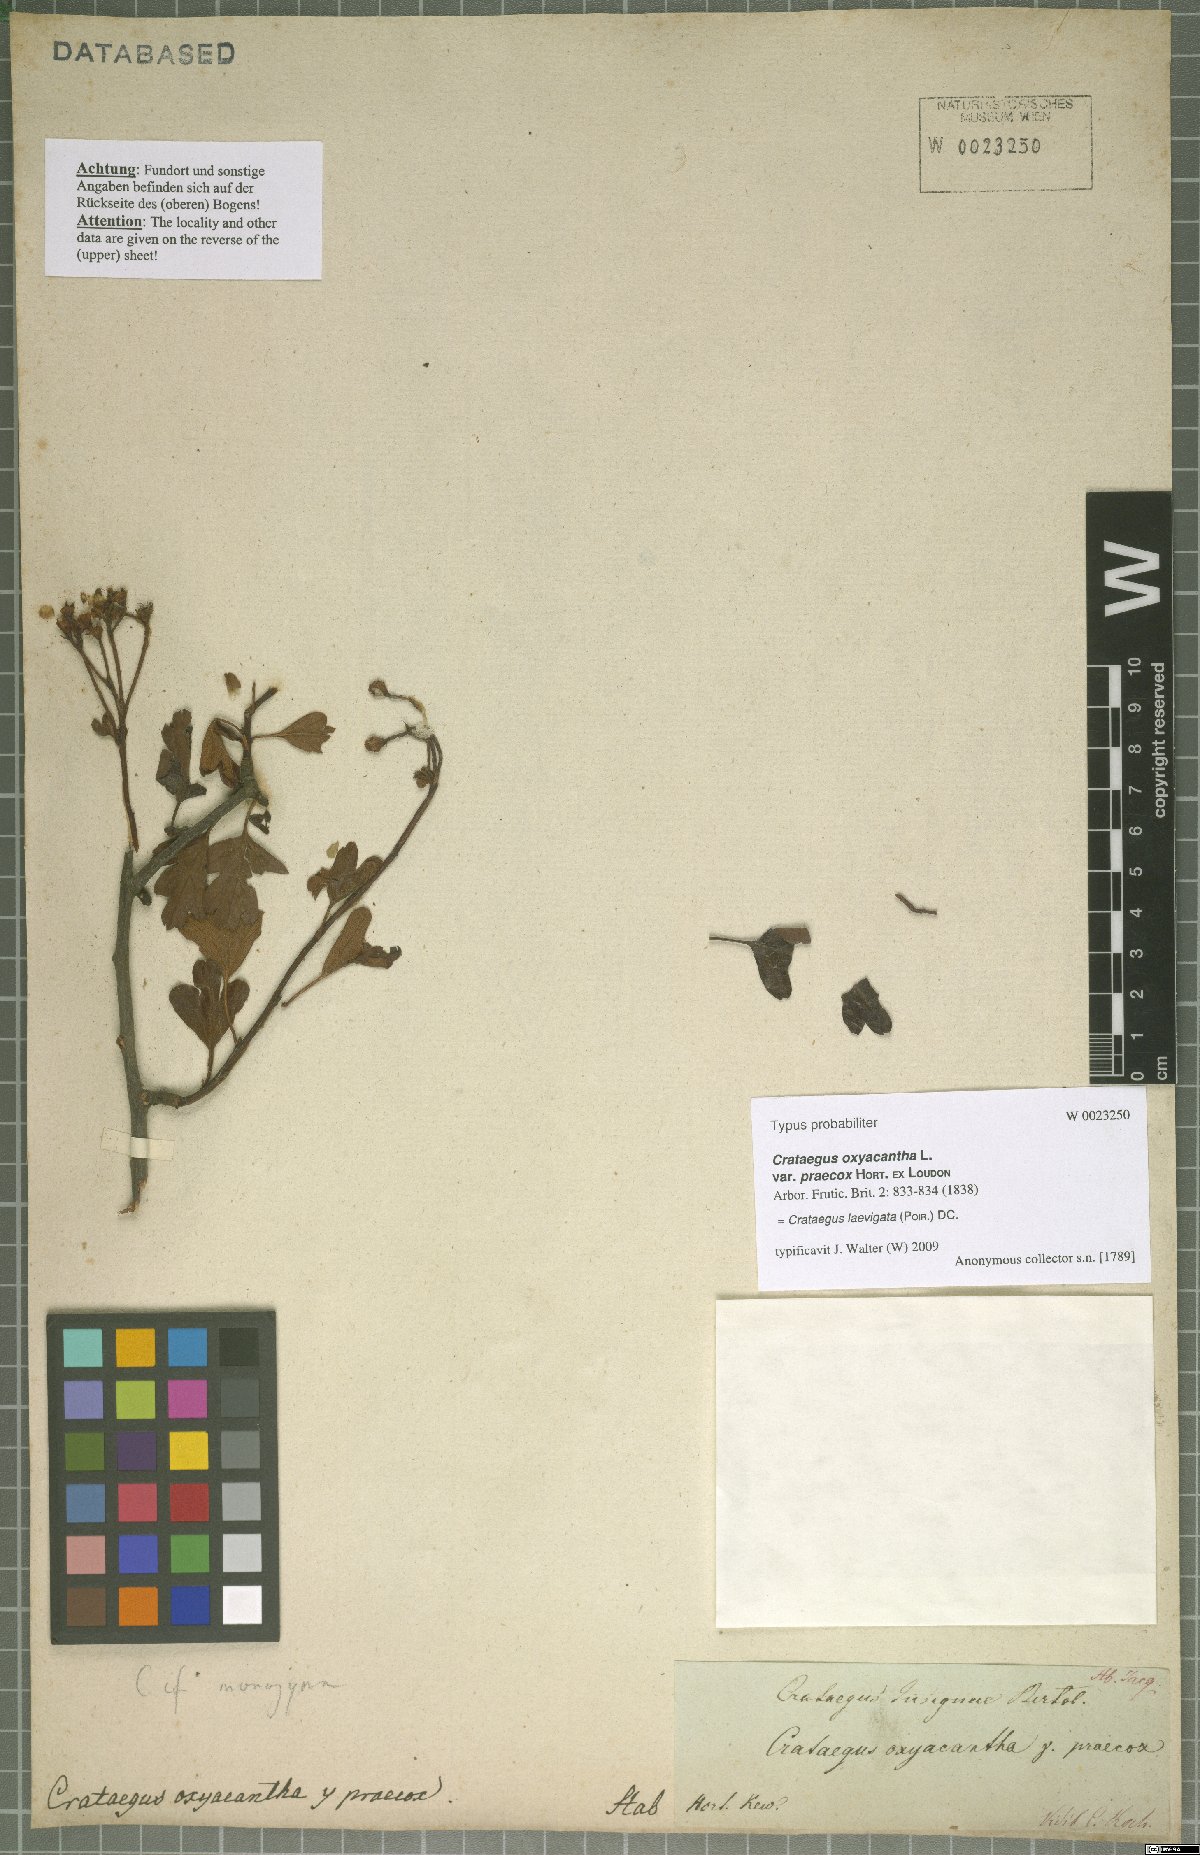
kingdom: Plantae
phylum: Tracheophyta
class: Magnoliopsida
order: Rosales
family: Rosaceae
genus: Crataegus
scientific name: Crataegus laevigata
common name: Midland hawthorn
